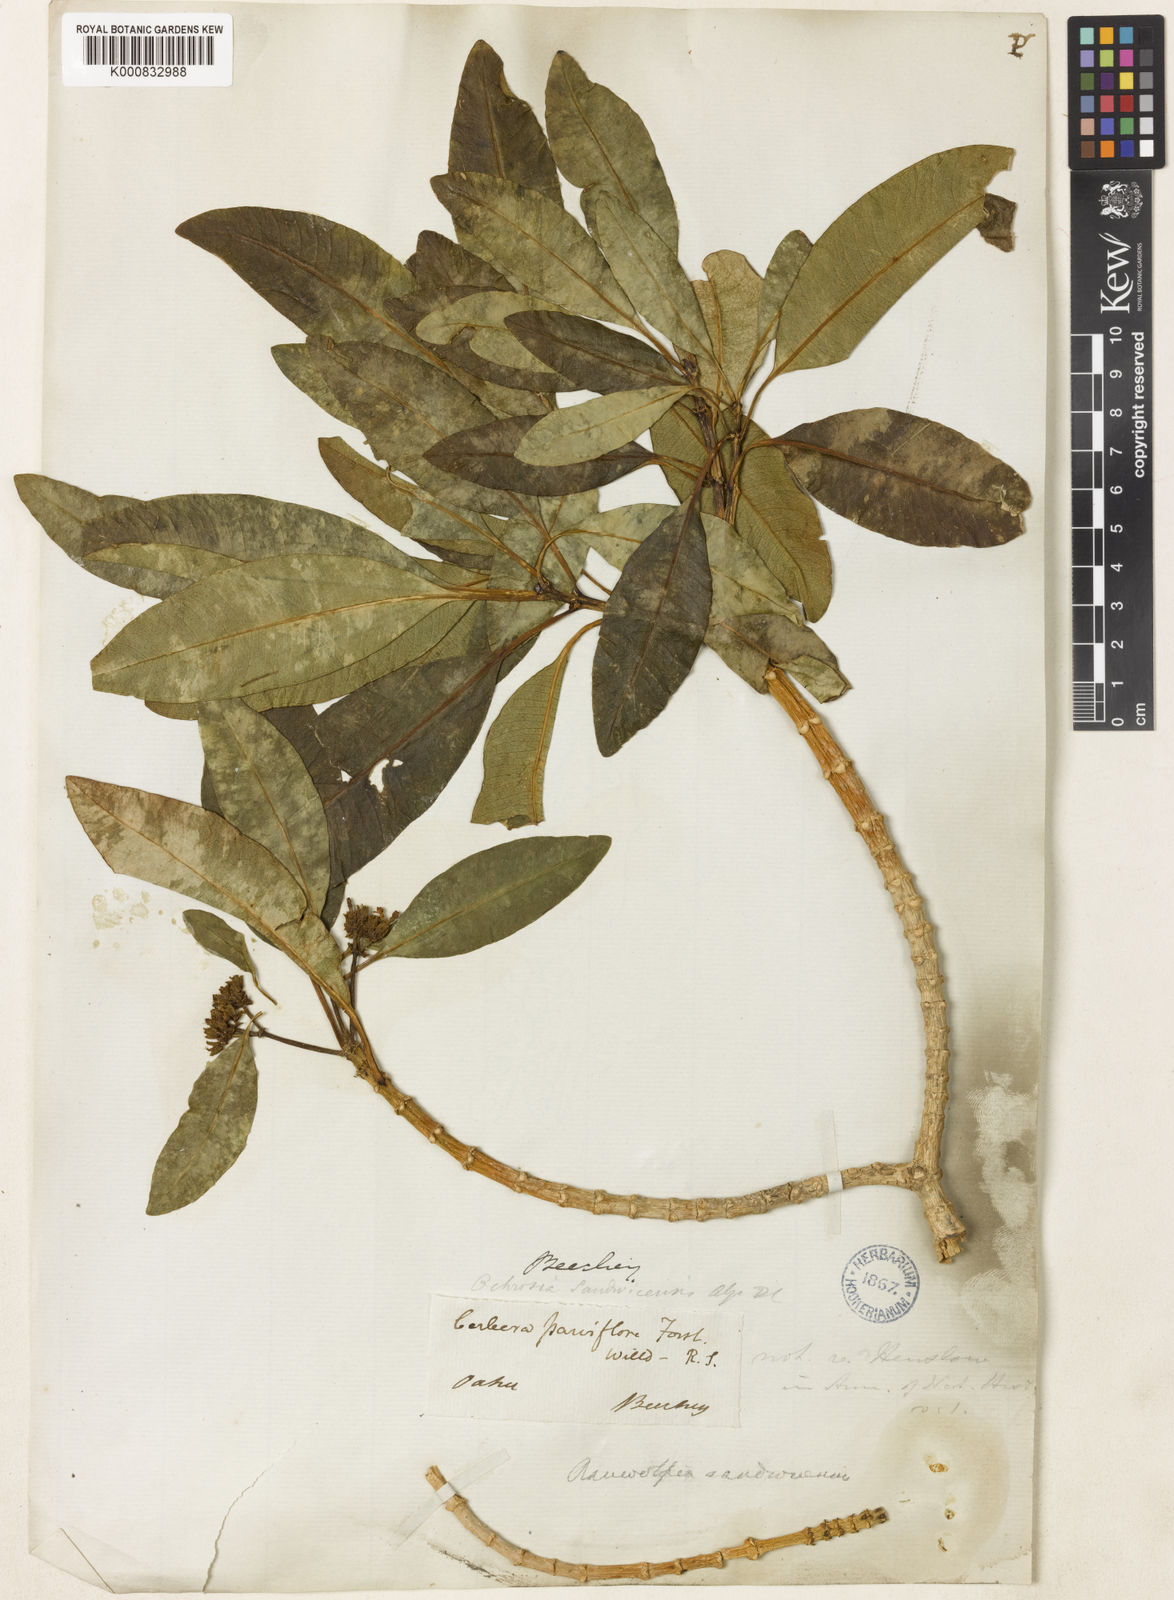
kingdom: Plantae
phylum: Tracheophyta
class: Magnoliopsida
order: Gentianales
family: Apocynaceae
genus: Rauvolfia
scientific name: Rauvolfia sandwicensis
